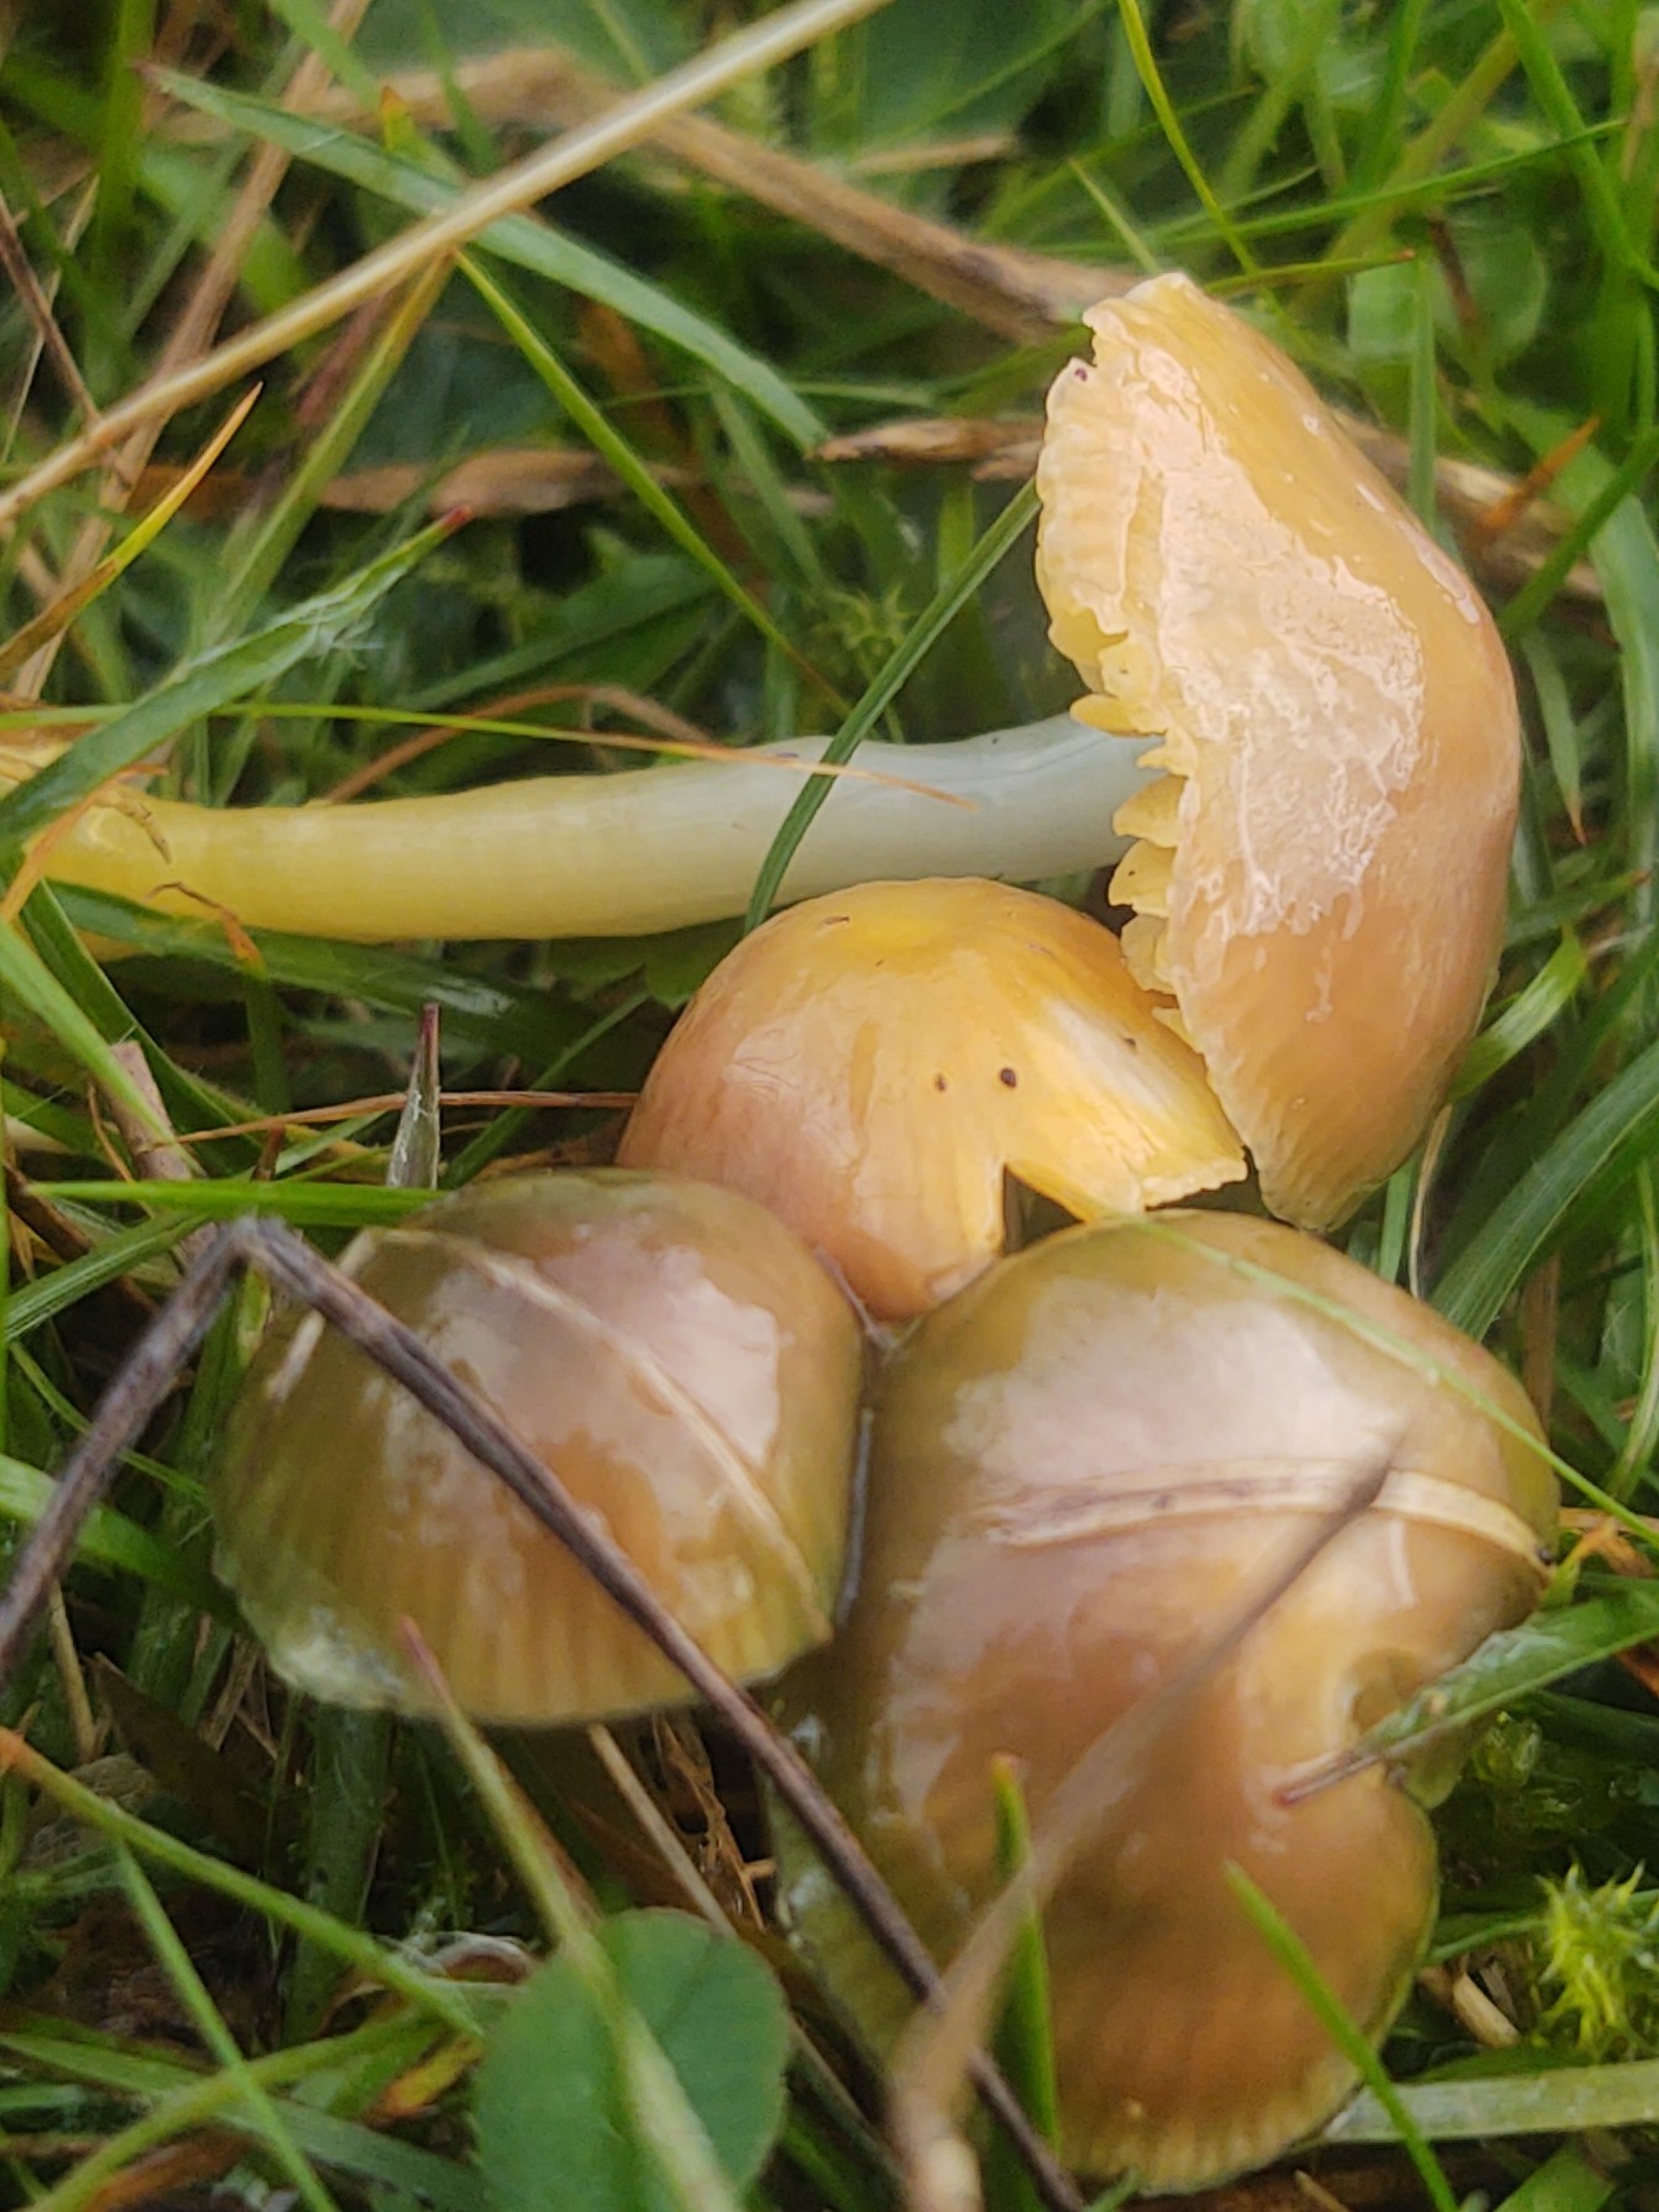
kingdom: Fungi
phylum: Basidiomycota
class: Agaricomycetes
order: Agaricales
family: Hygrophoraceae
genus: Gliophorus
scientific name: Gliophorus psittacinus
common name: Papegøje-vokshat
